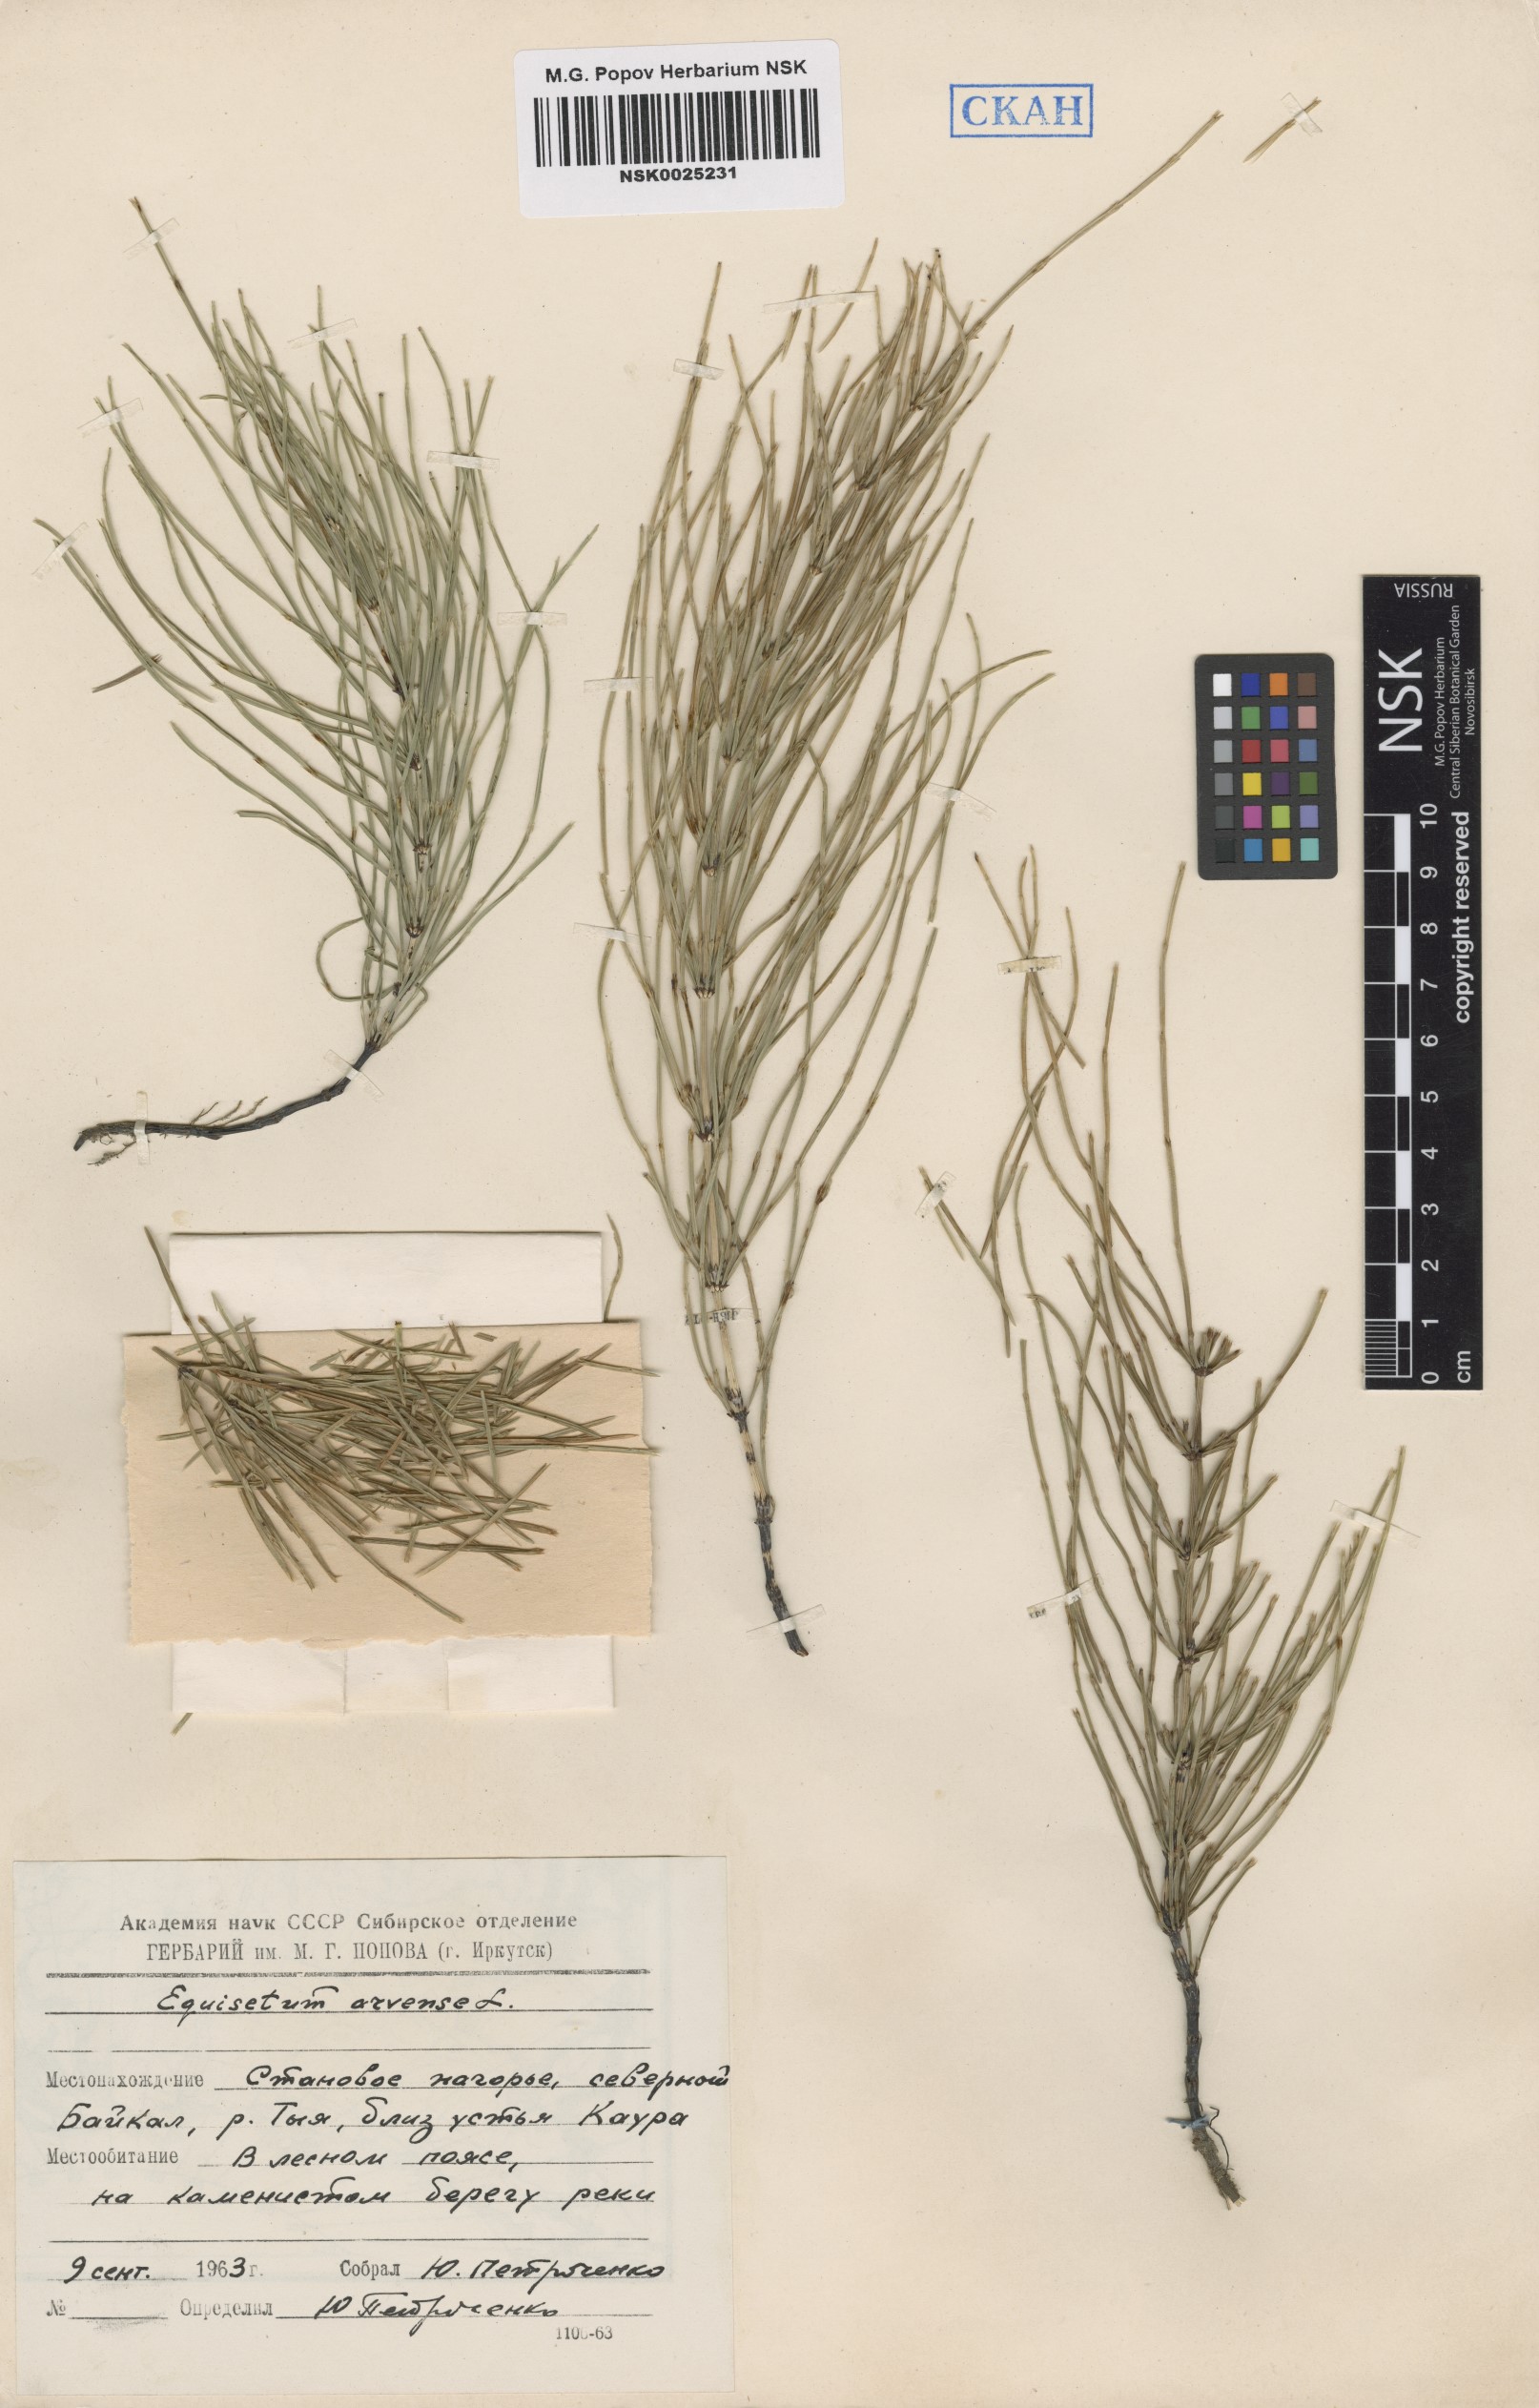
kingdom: Plantae
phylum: Tracheophyta
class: Polypodiopsida
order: Equisetales
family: Equisetaceae
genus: Equisetum
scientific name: Equisetum arvense
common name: Field horsetail
